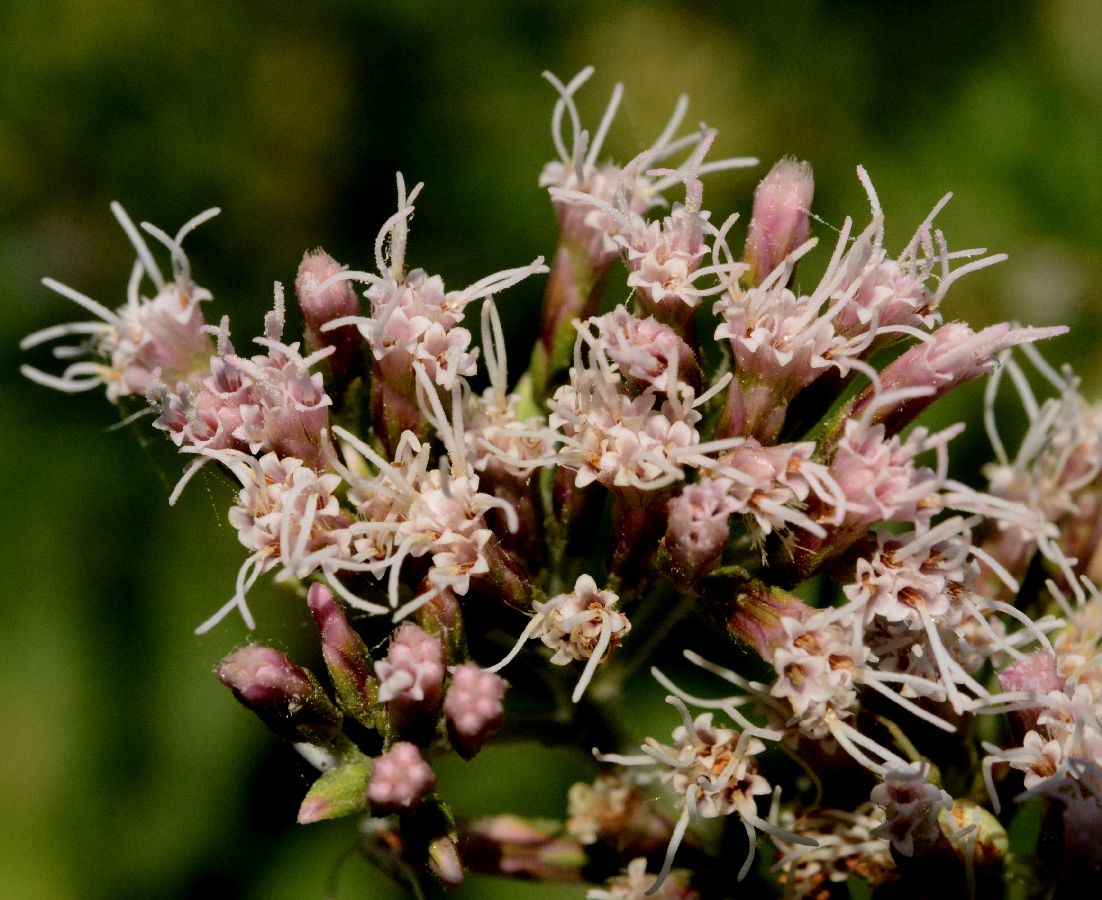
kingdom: Plantae
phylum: Tracheophyta
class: Magnoliopsida
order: Asterales
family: Asteraceae
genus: Eupatorium
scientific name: Eupatorium cannabinum
